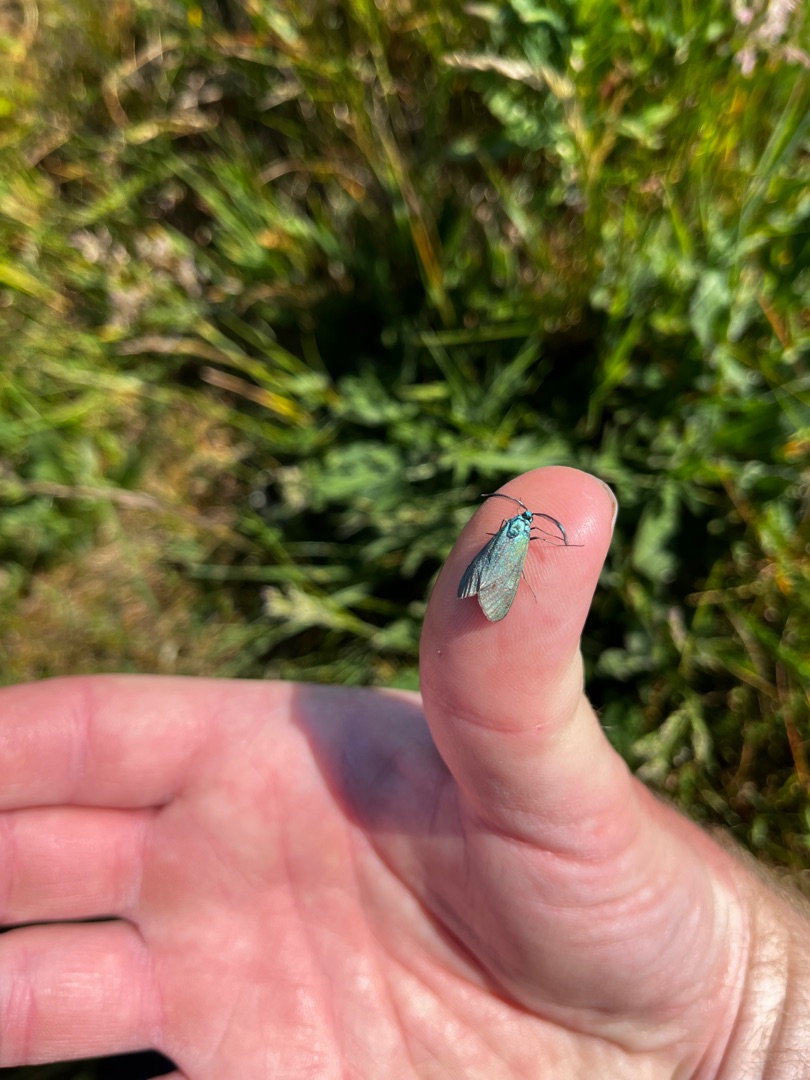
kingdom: Animalia
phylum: Arthropoda
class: Insecta
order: Lepidoptera
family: Zygaenidae
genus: Adscita
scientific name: Adscita statices
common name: Metalvinge
